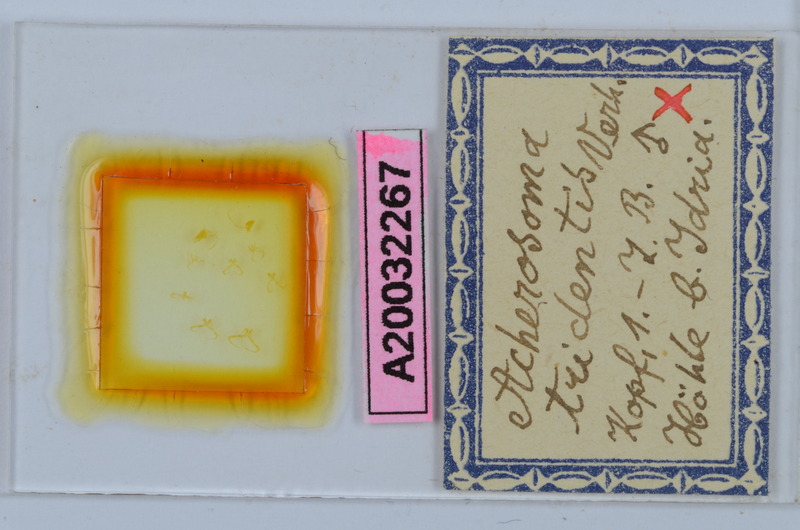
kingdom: Animalia
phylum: Arthropoda
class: Diplopoda
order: Chordeumatida
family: Anthogonidae
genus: Haasia
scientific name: Haasia tridentis
